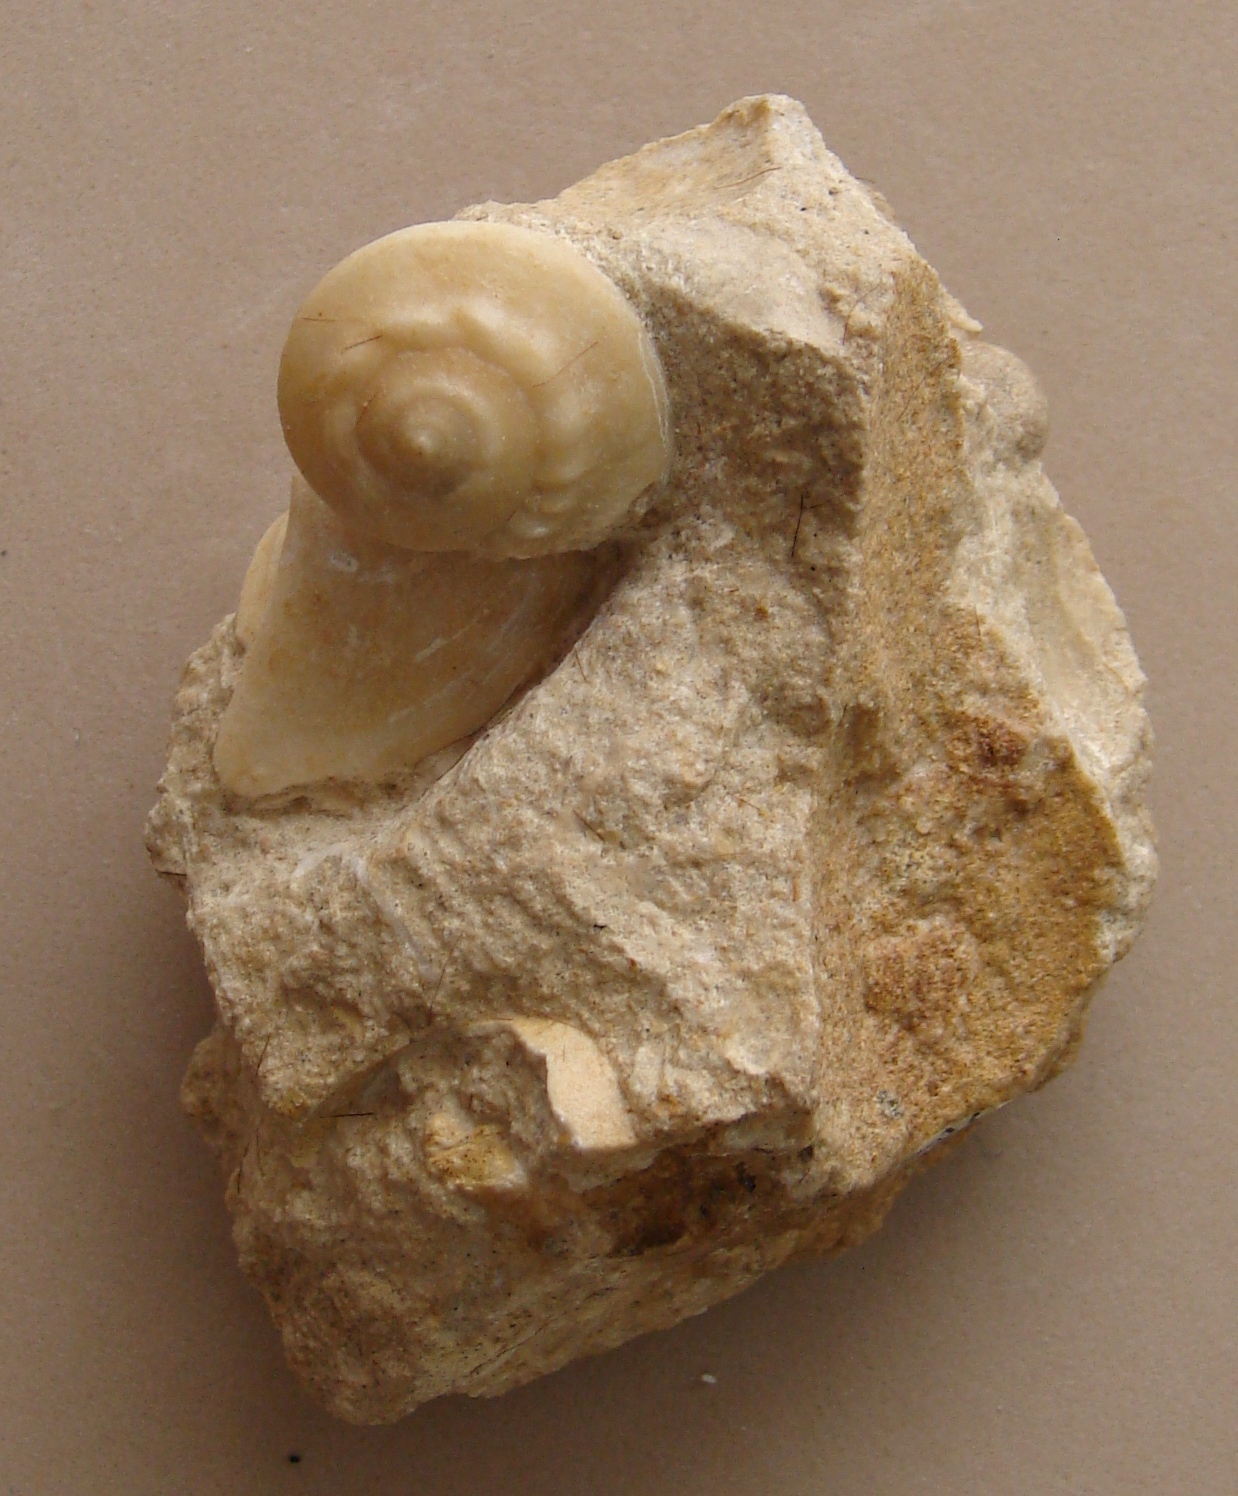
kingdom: Animalia
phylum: Mollusca
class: Gastropoda
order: Pleurotomariida
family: Ptychomphalidae
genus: Ptychomphalus
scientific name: Ptychomphalus Pleurotomaria wehenkeli
